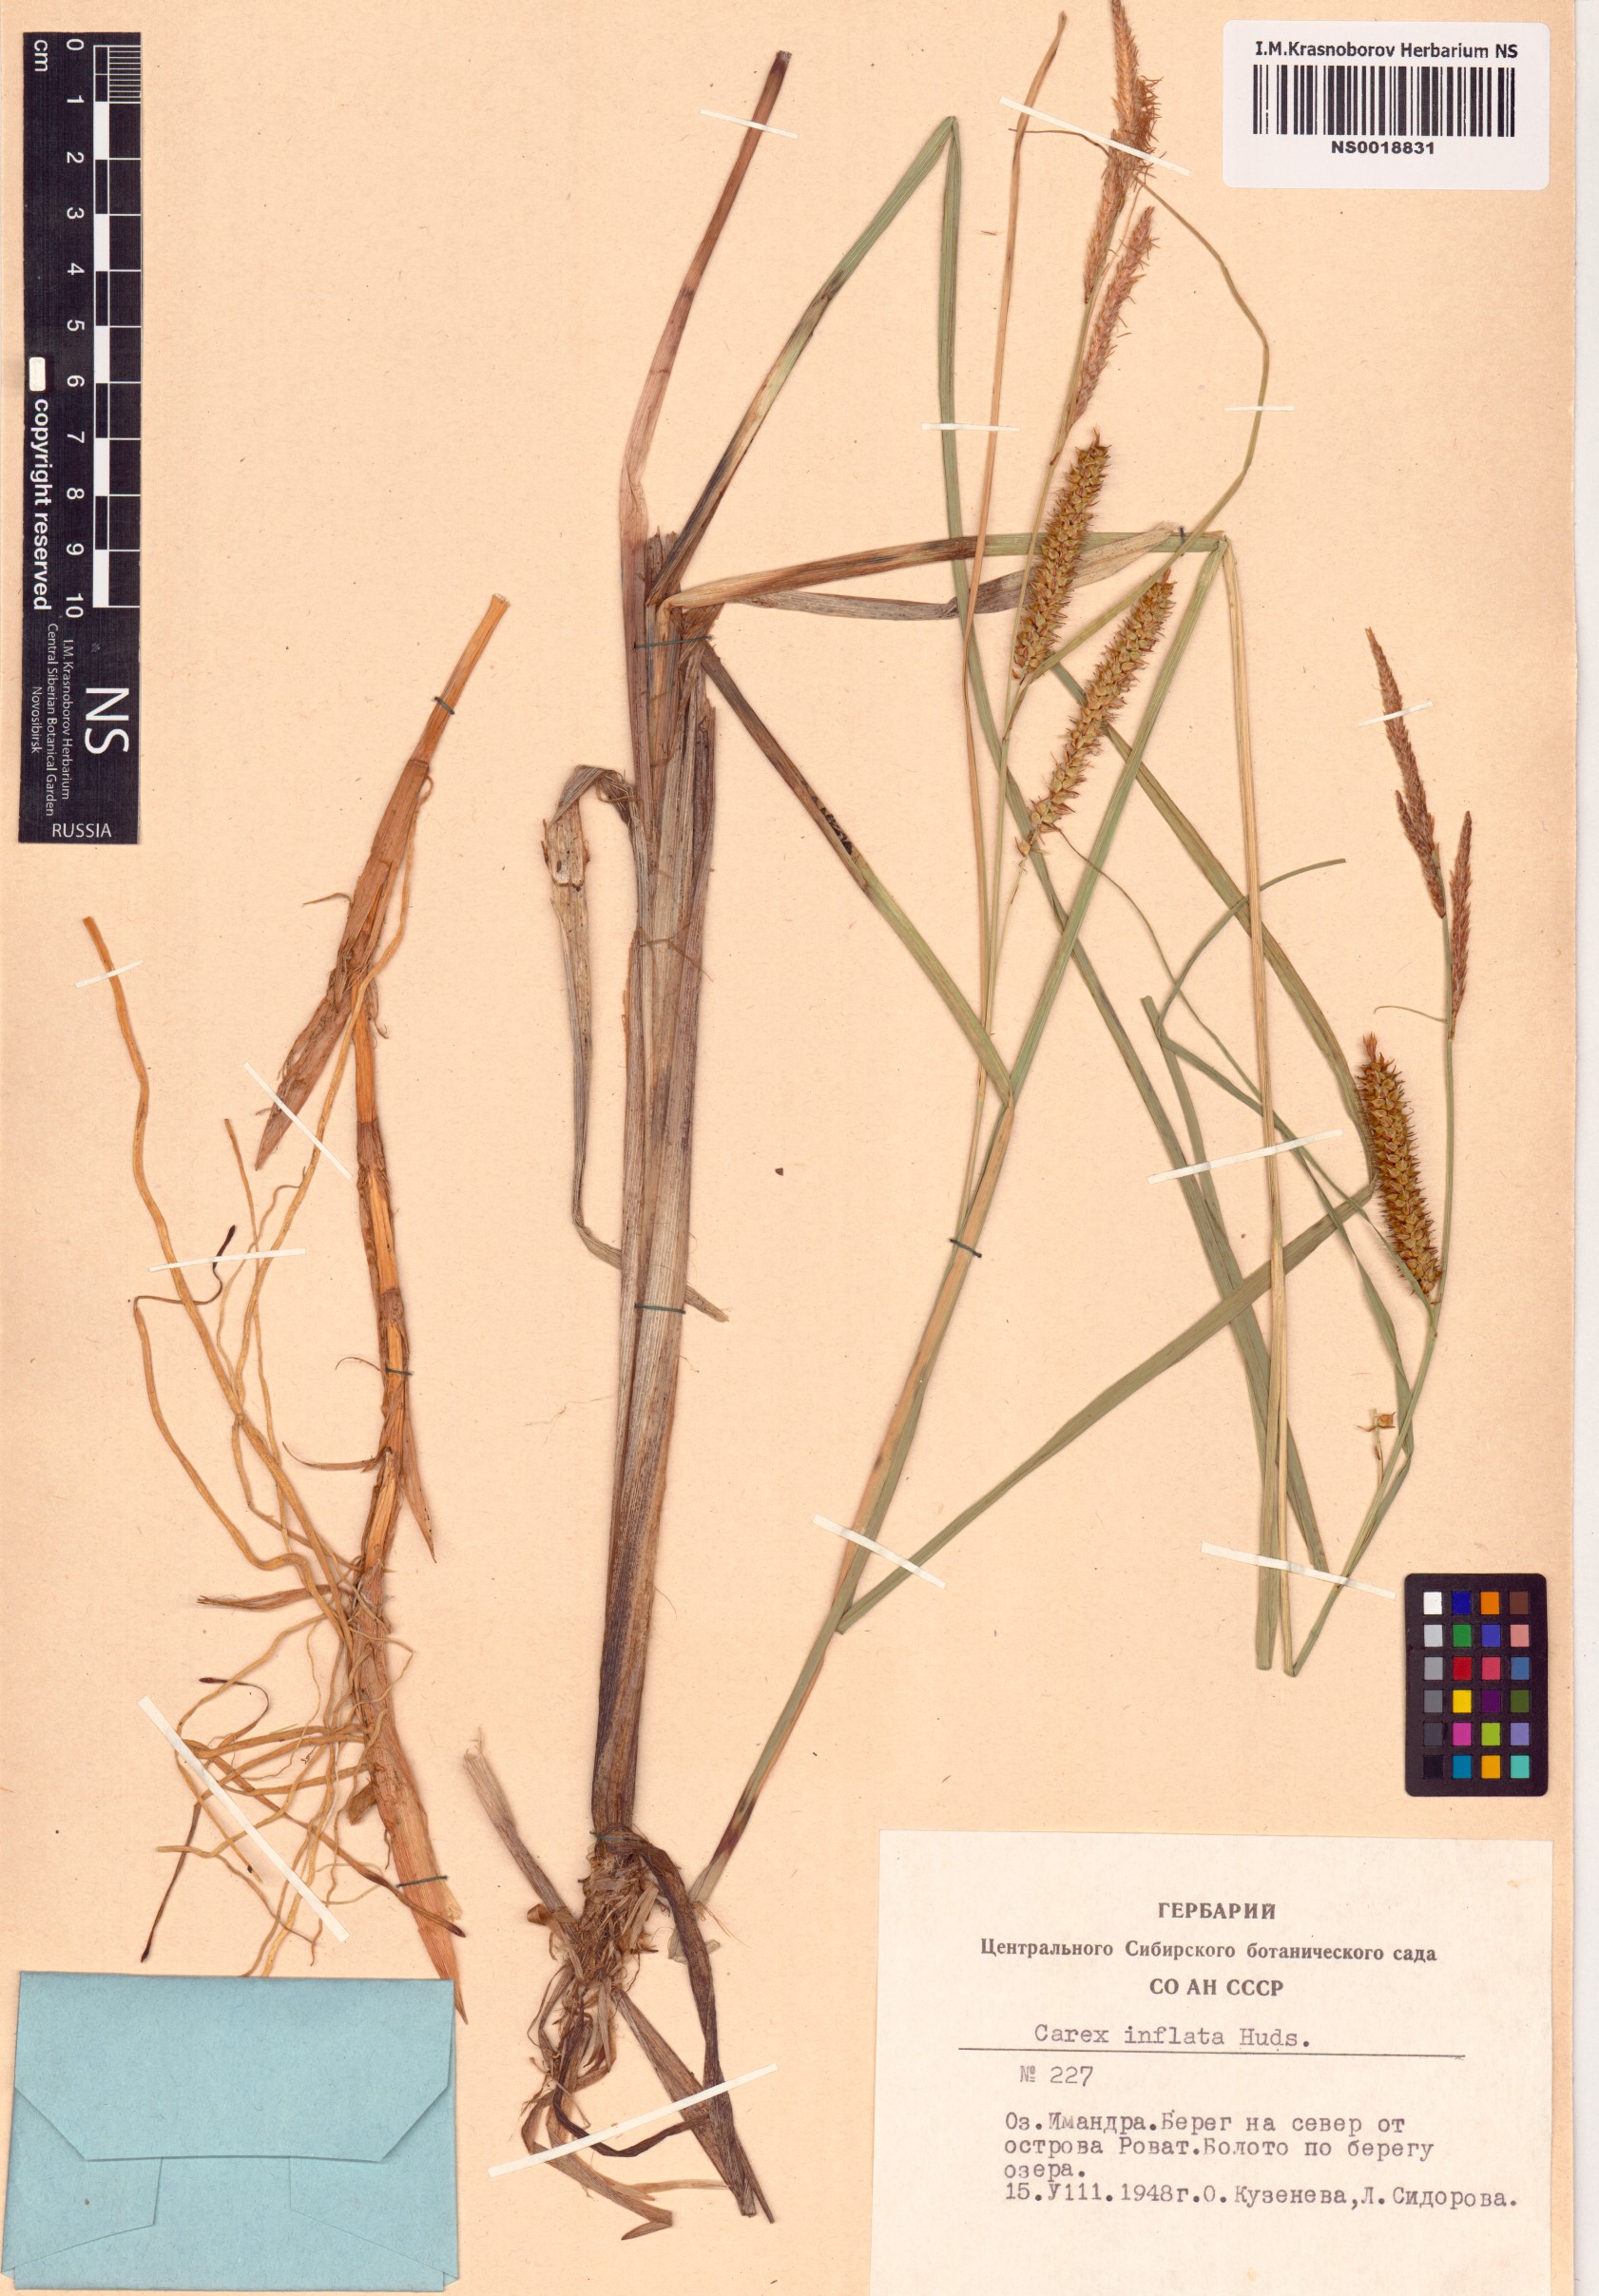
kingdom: Plantae
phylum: Tracheophyta
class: Liliopsida
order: Poales
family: Cyperaceae
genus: Carex
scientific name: Carex rostrata
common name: Bottle sedge
